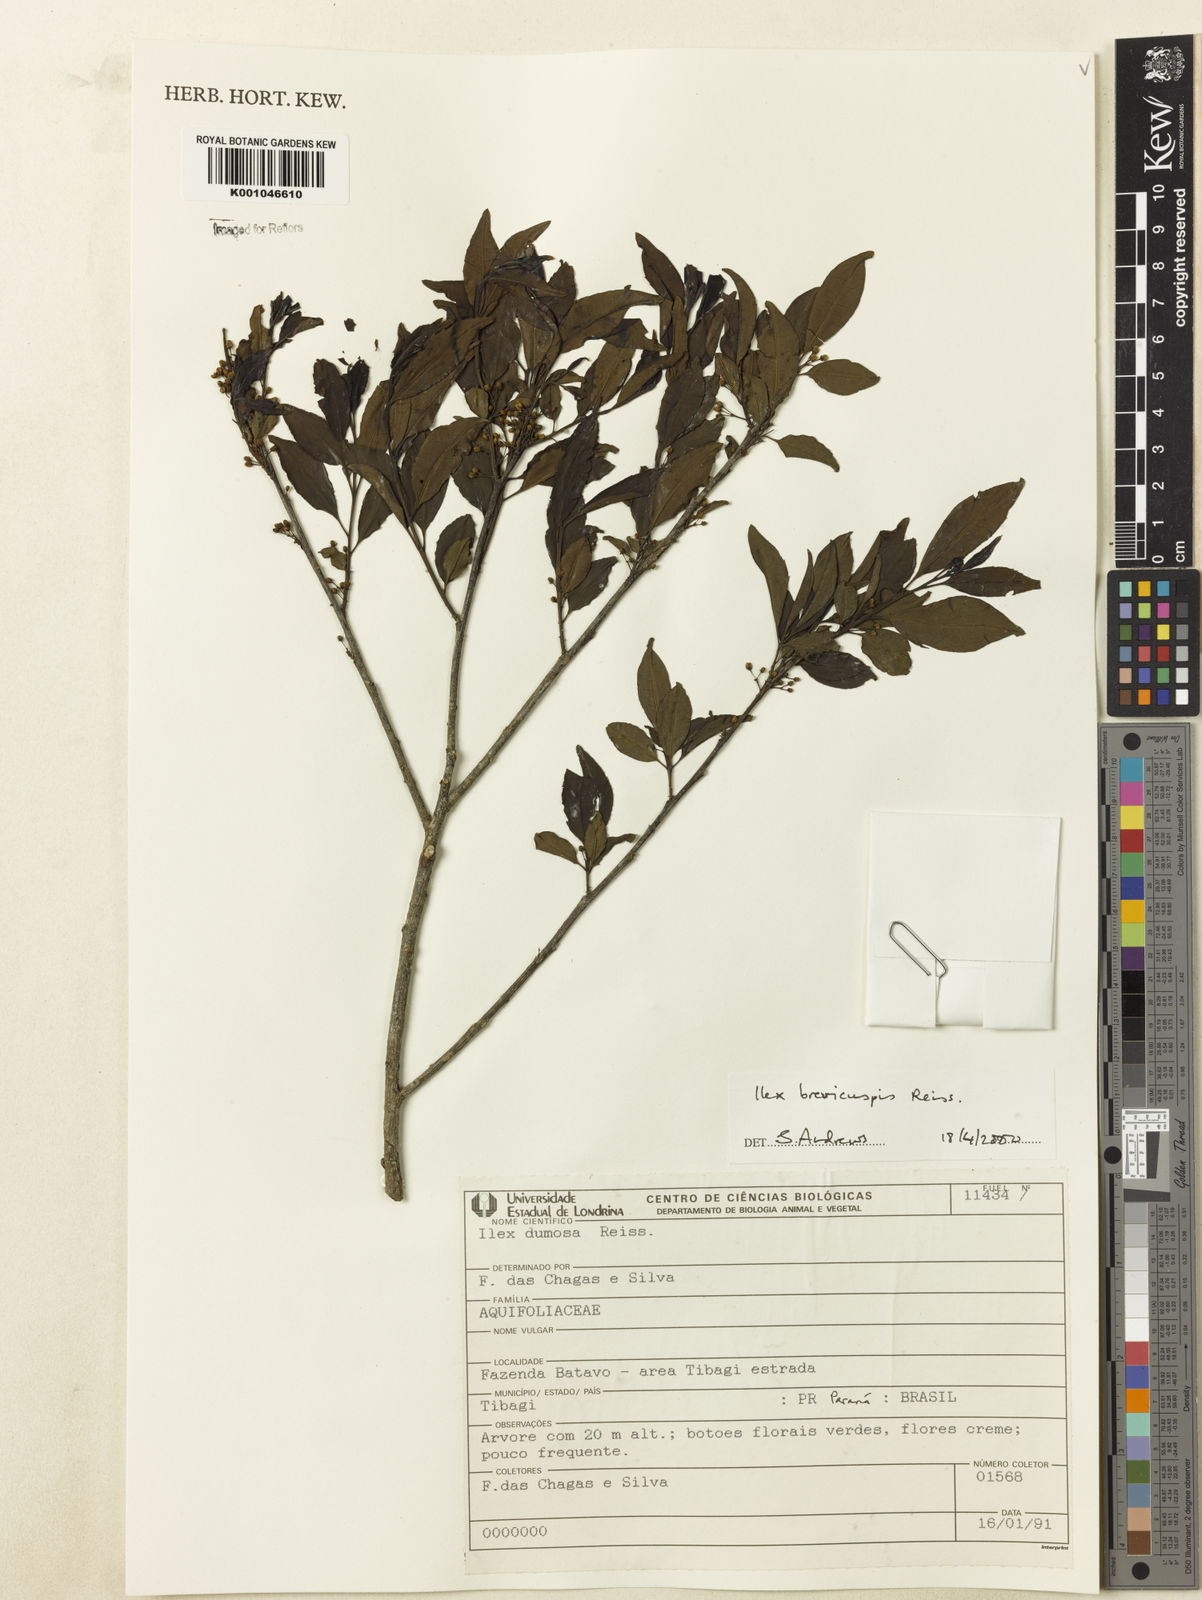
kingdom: Plantae
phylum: Tracheophyta
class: Magnoliopsida
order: Aquifoliales
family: Aquifoliaceae
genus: Ilex
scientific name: Ilex brevicuspis
